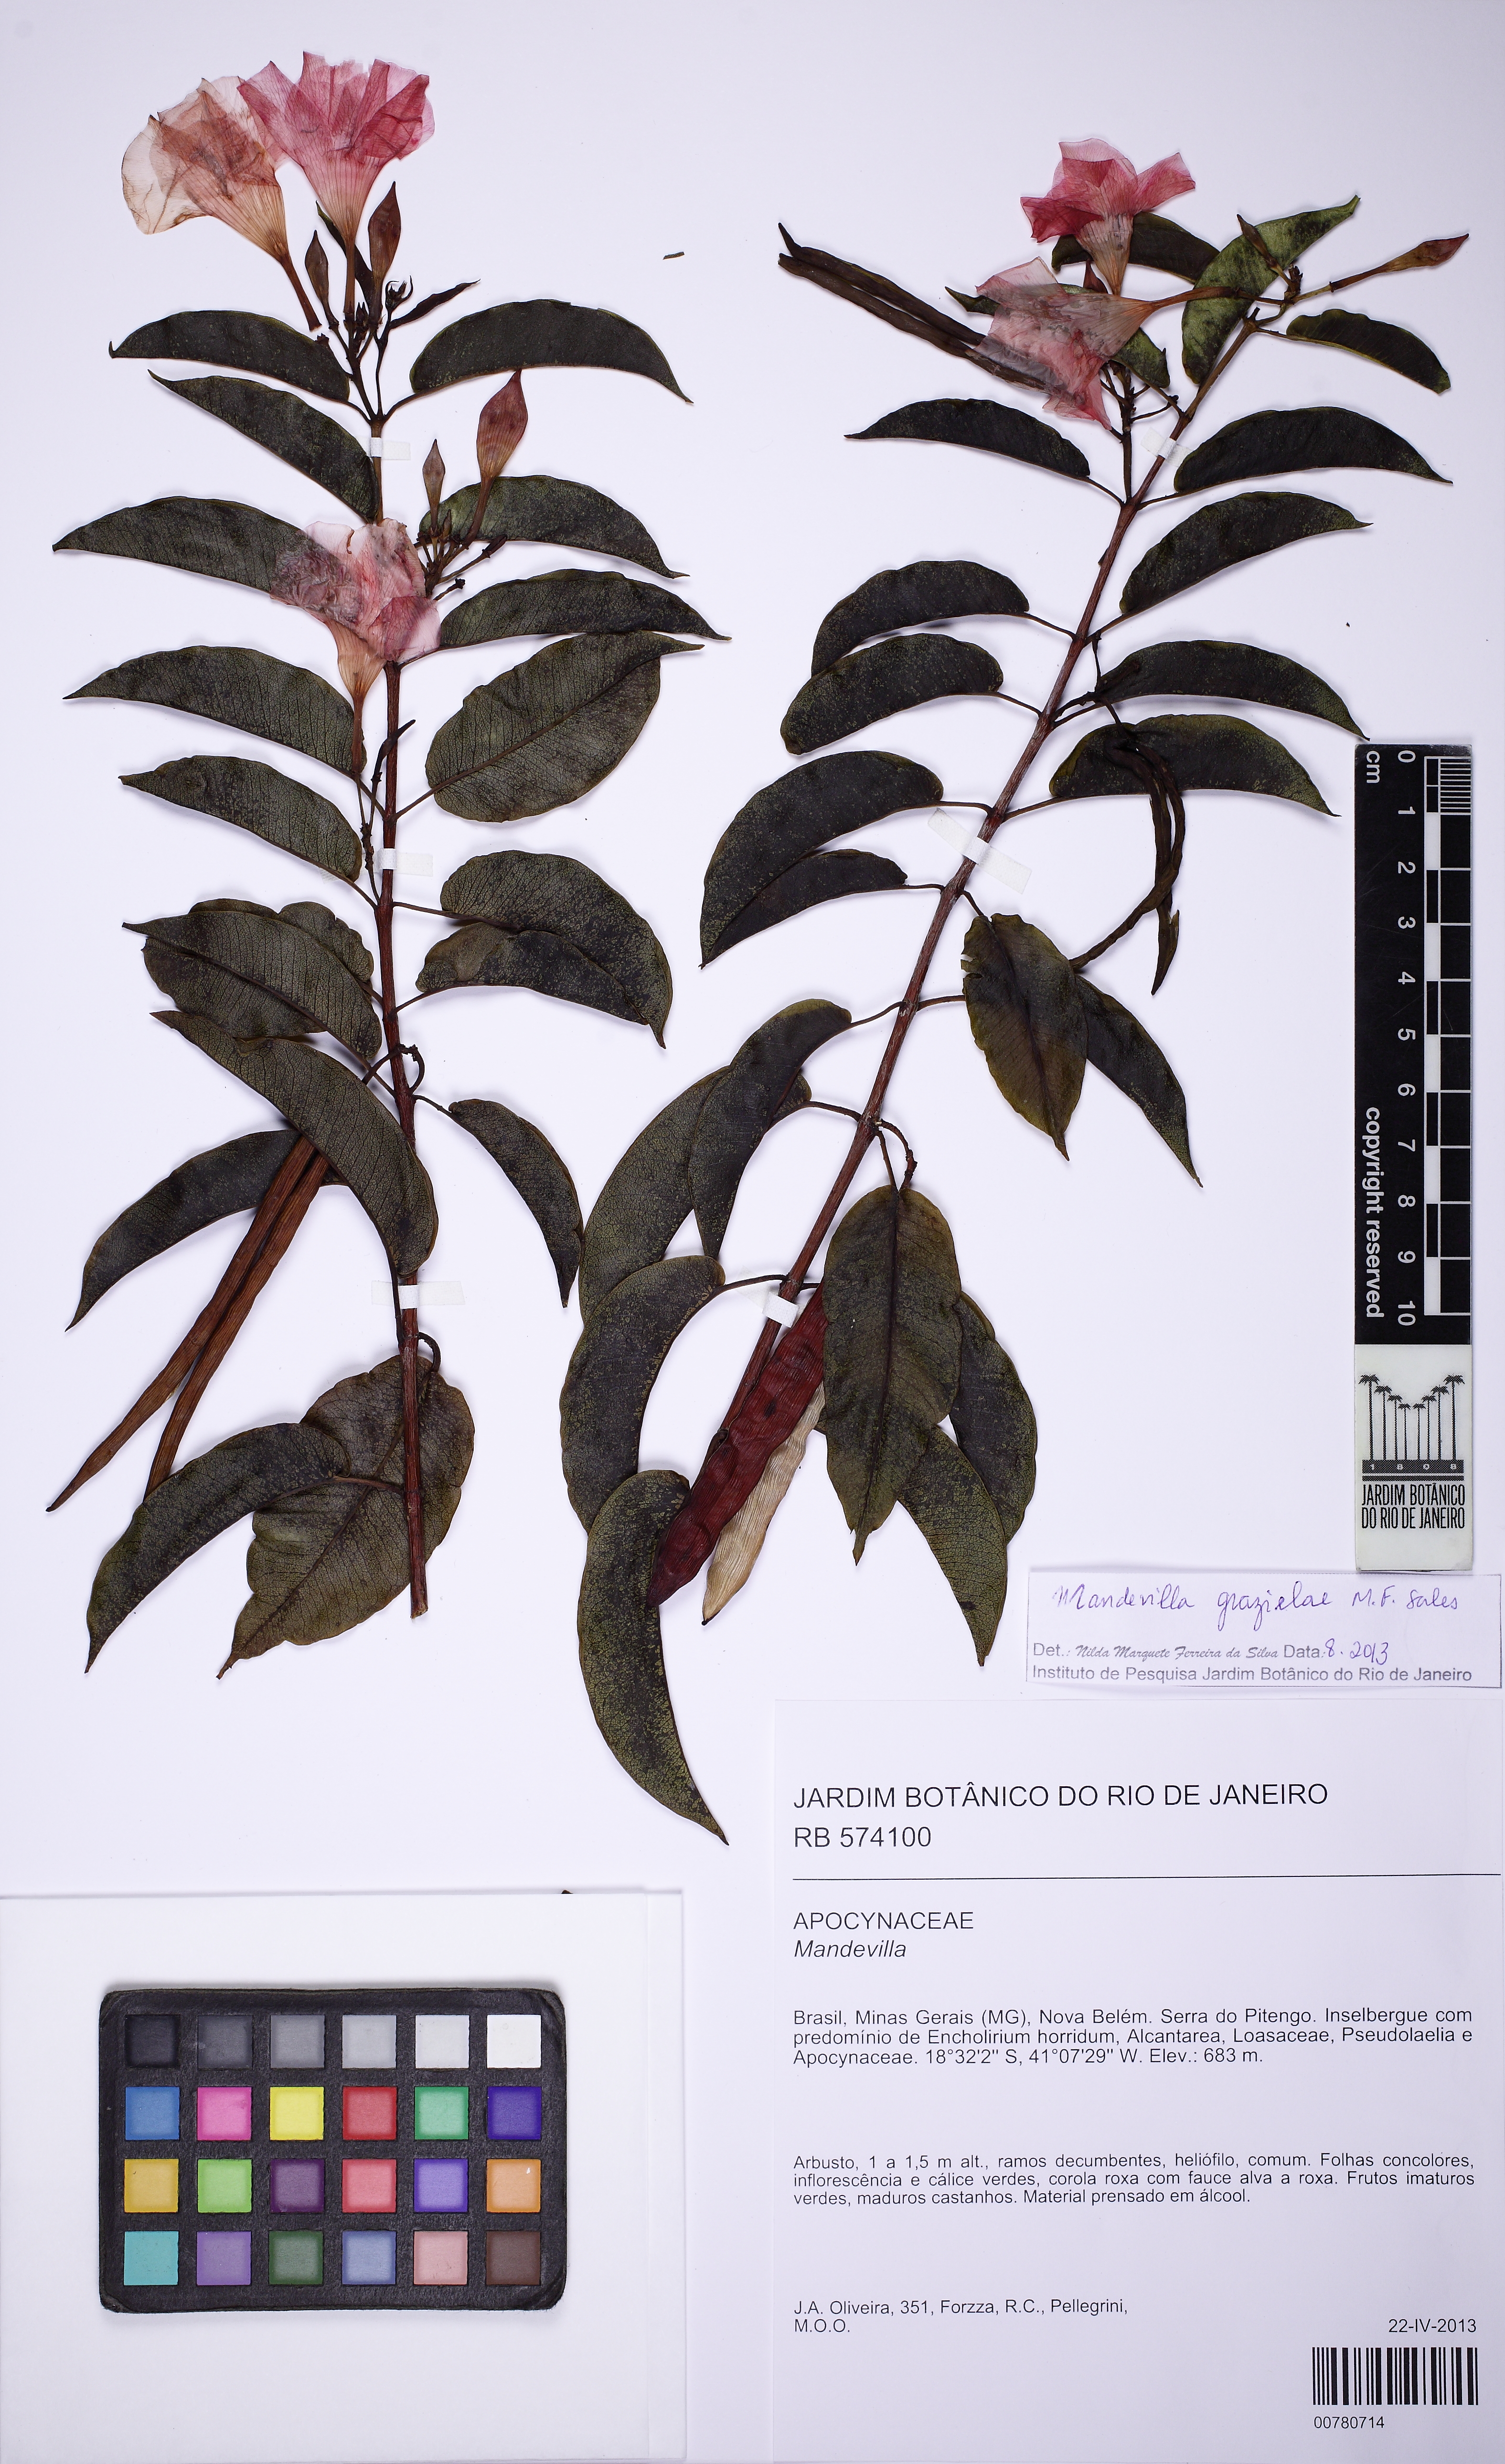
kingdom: Plantae
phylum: Tracheophyta
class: Magnoliopsida
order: Gentianales
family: Apocynaceae
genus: Mandevilla
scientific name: Mandevilla grazielae
